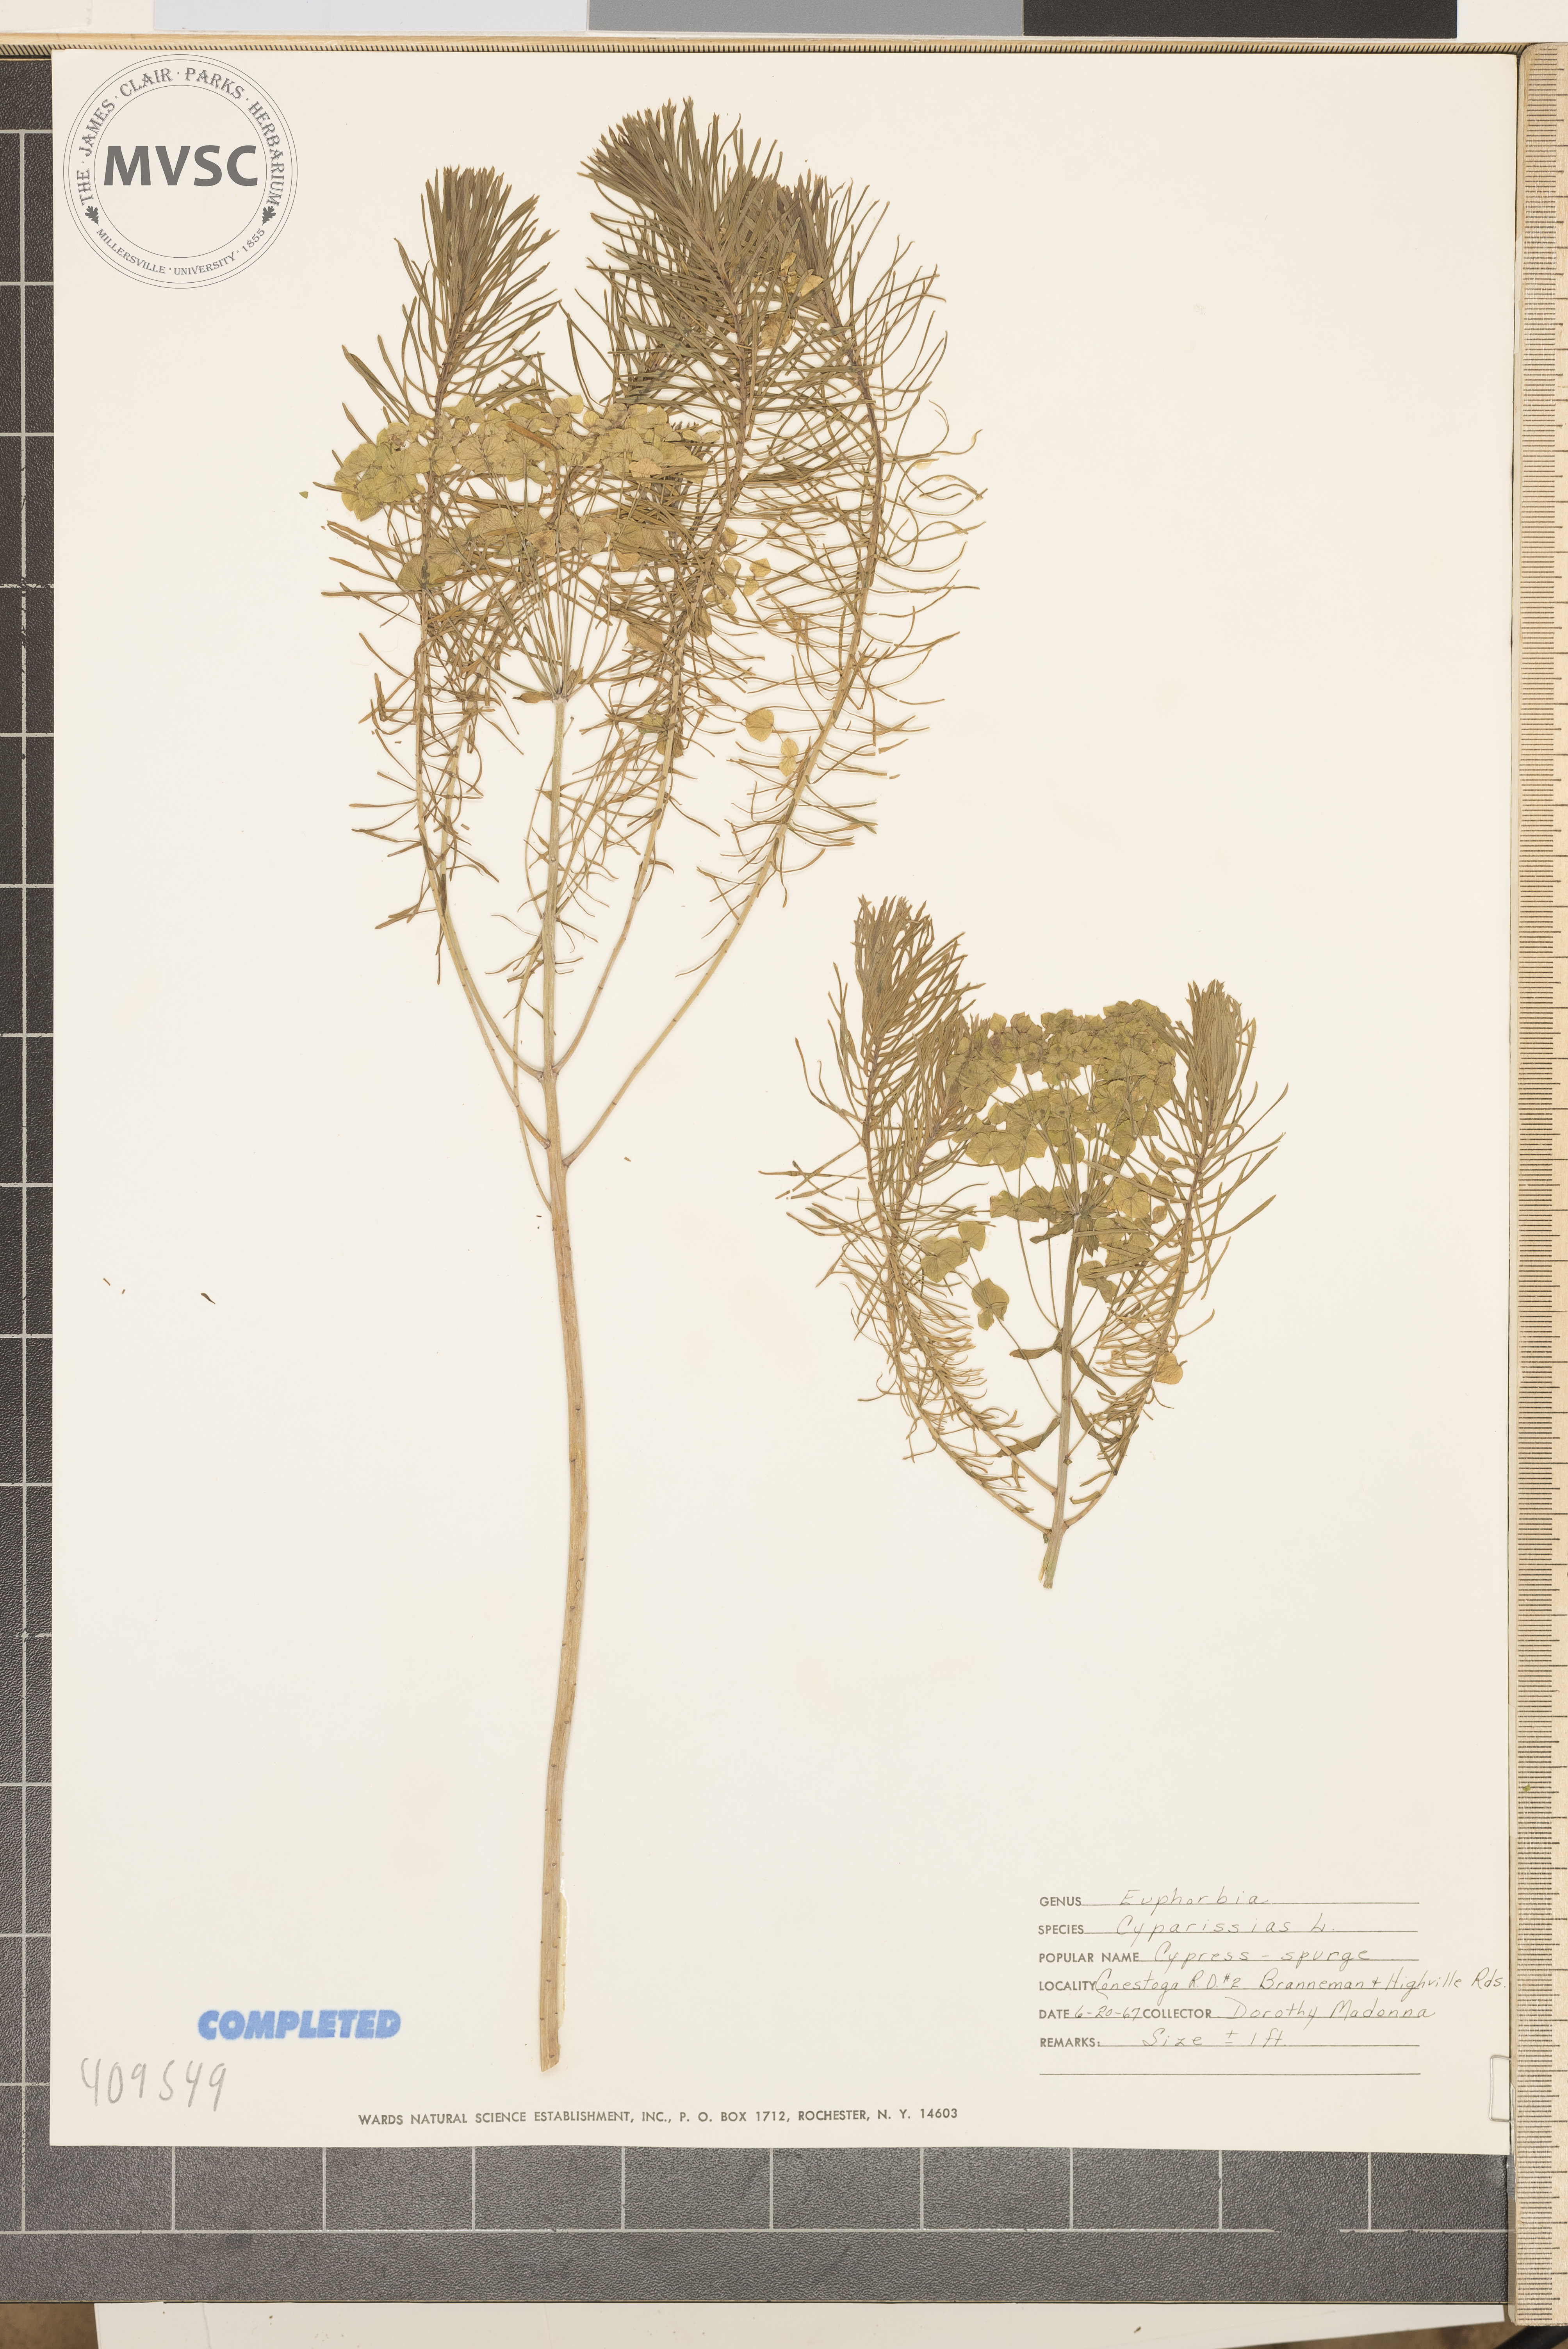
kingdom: Plantae
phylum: Tracheophyta
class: Magnoliopsida
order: Malpighiales
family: Euphorbiaceae
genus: Euphorbia
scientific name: Euphorbia cyparissias
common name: Cypress Spurge
